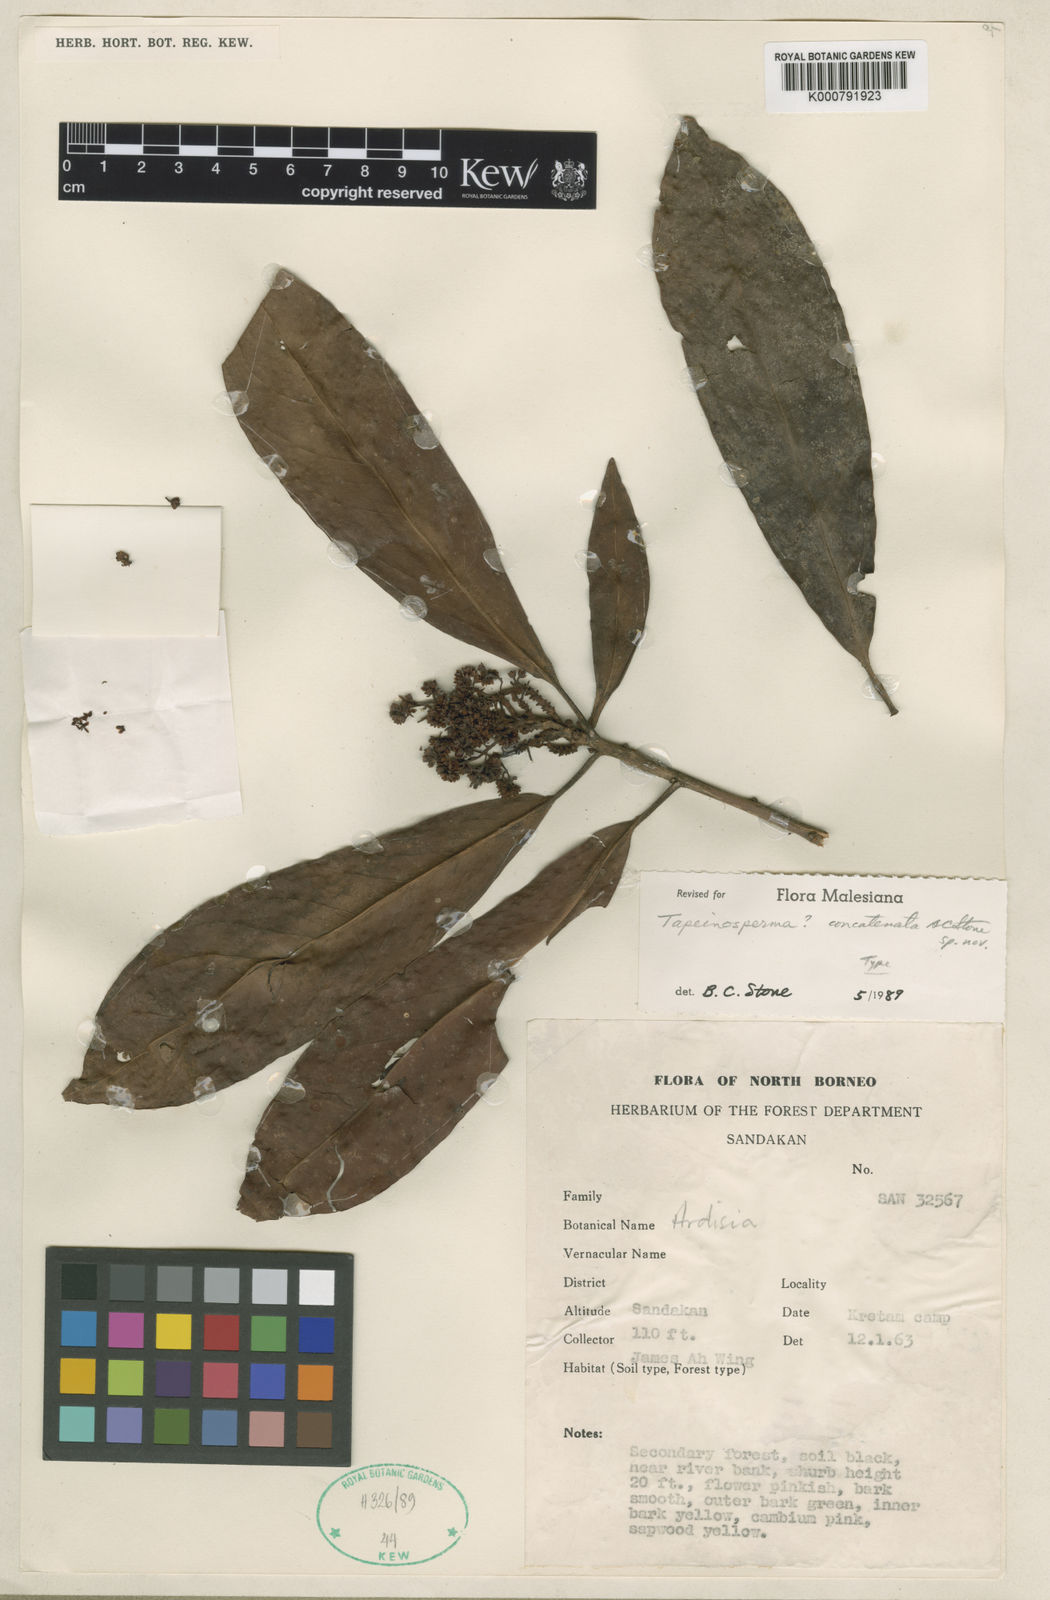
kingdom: Plantae
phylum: Tracheophyta
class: Magnoliopsida
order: Ericales
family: Primulaceae
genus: Tapeinosperma
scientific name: Tapeinosperma
